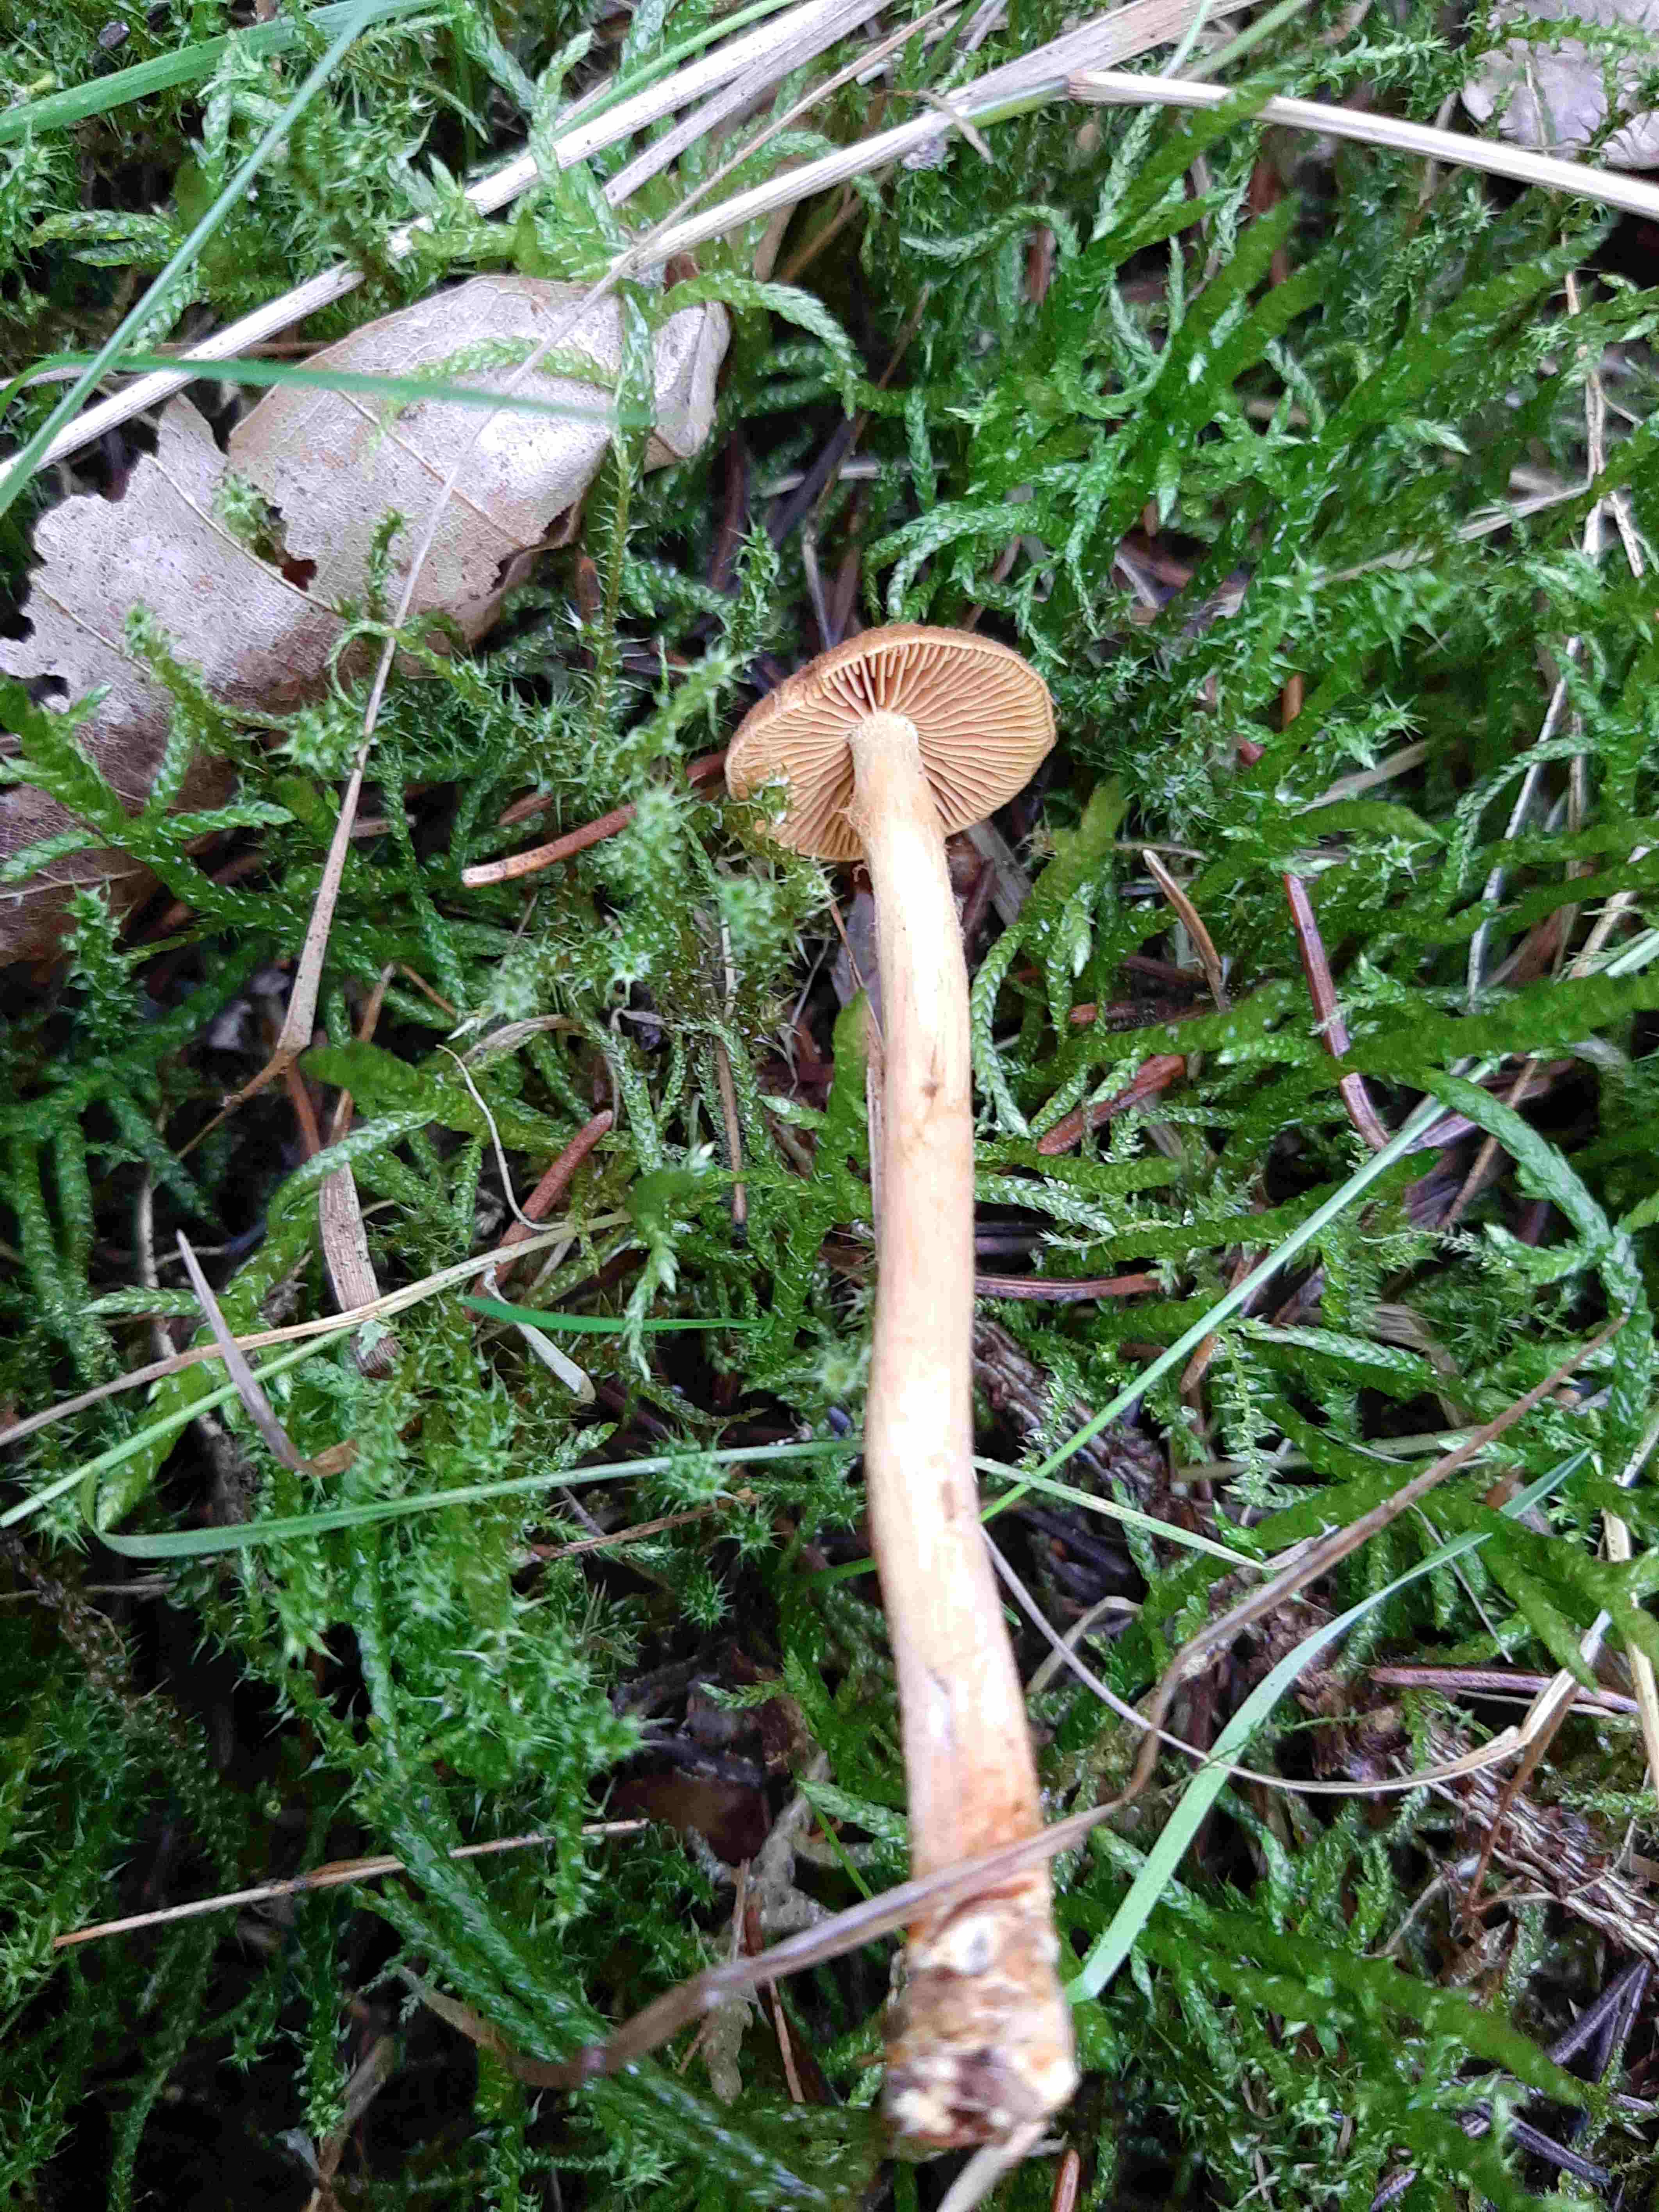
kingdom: Fungi
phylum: Basidiomycota
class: Agaricomycetes
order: Agaricales
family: Cortinariaceae
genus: Cortinarius
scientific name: Cortinarius
